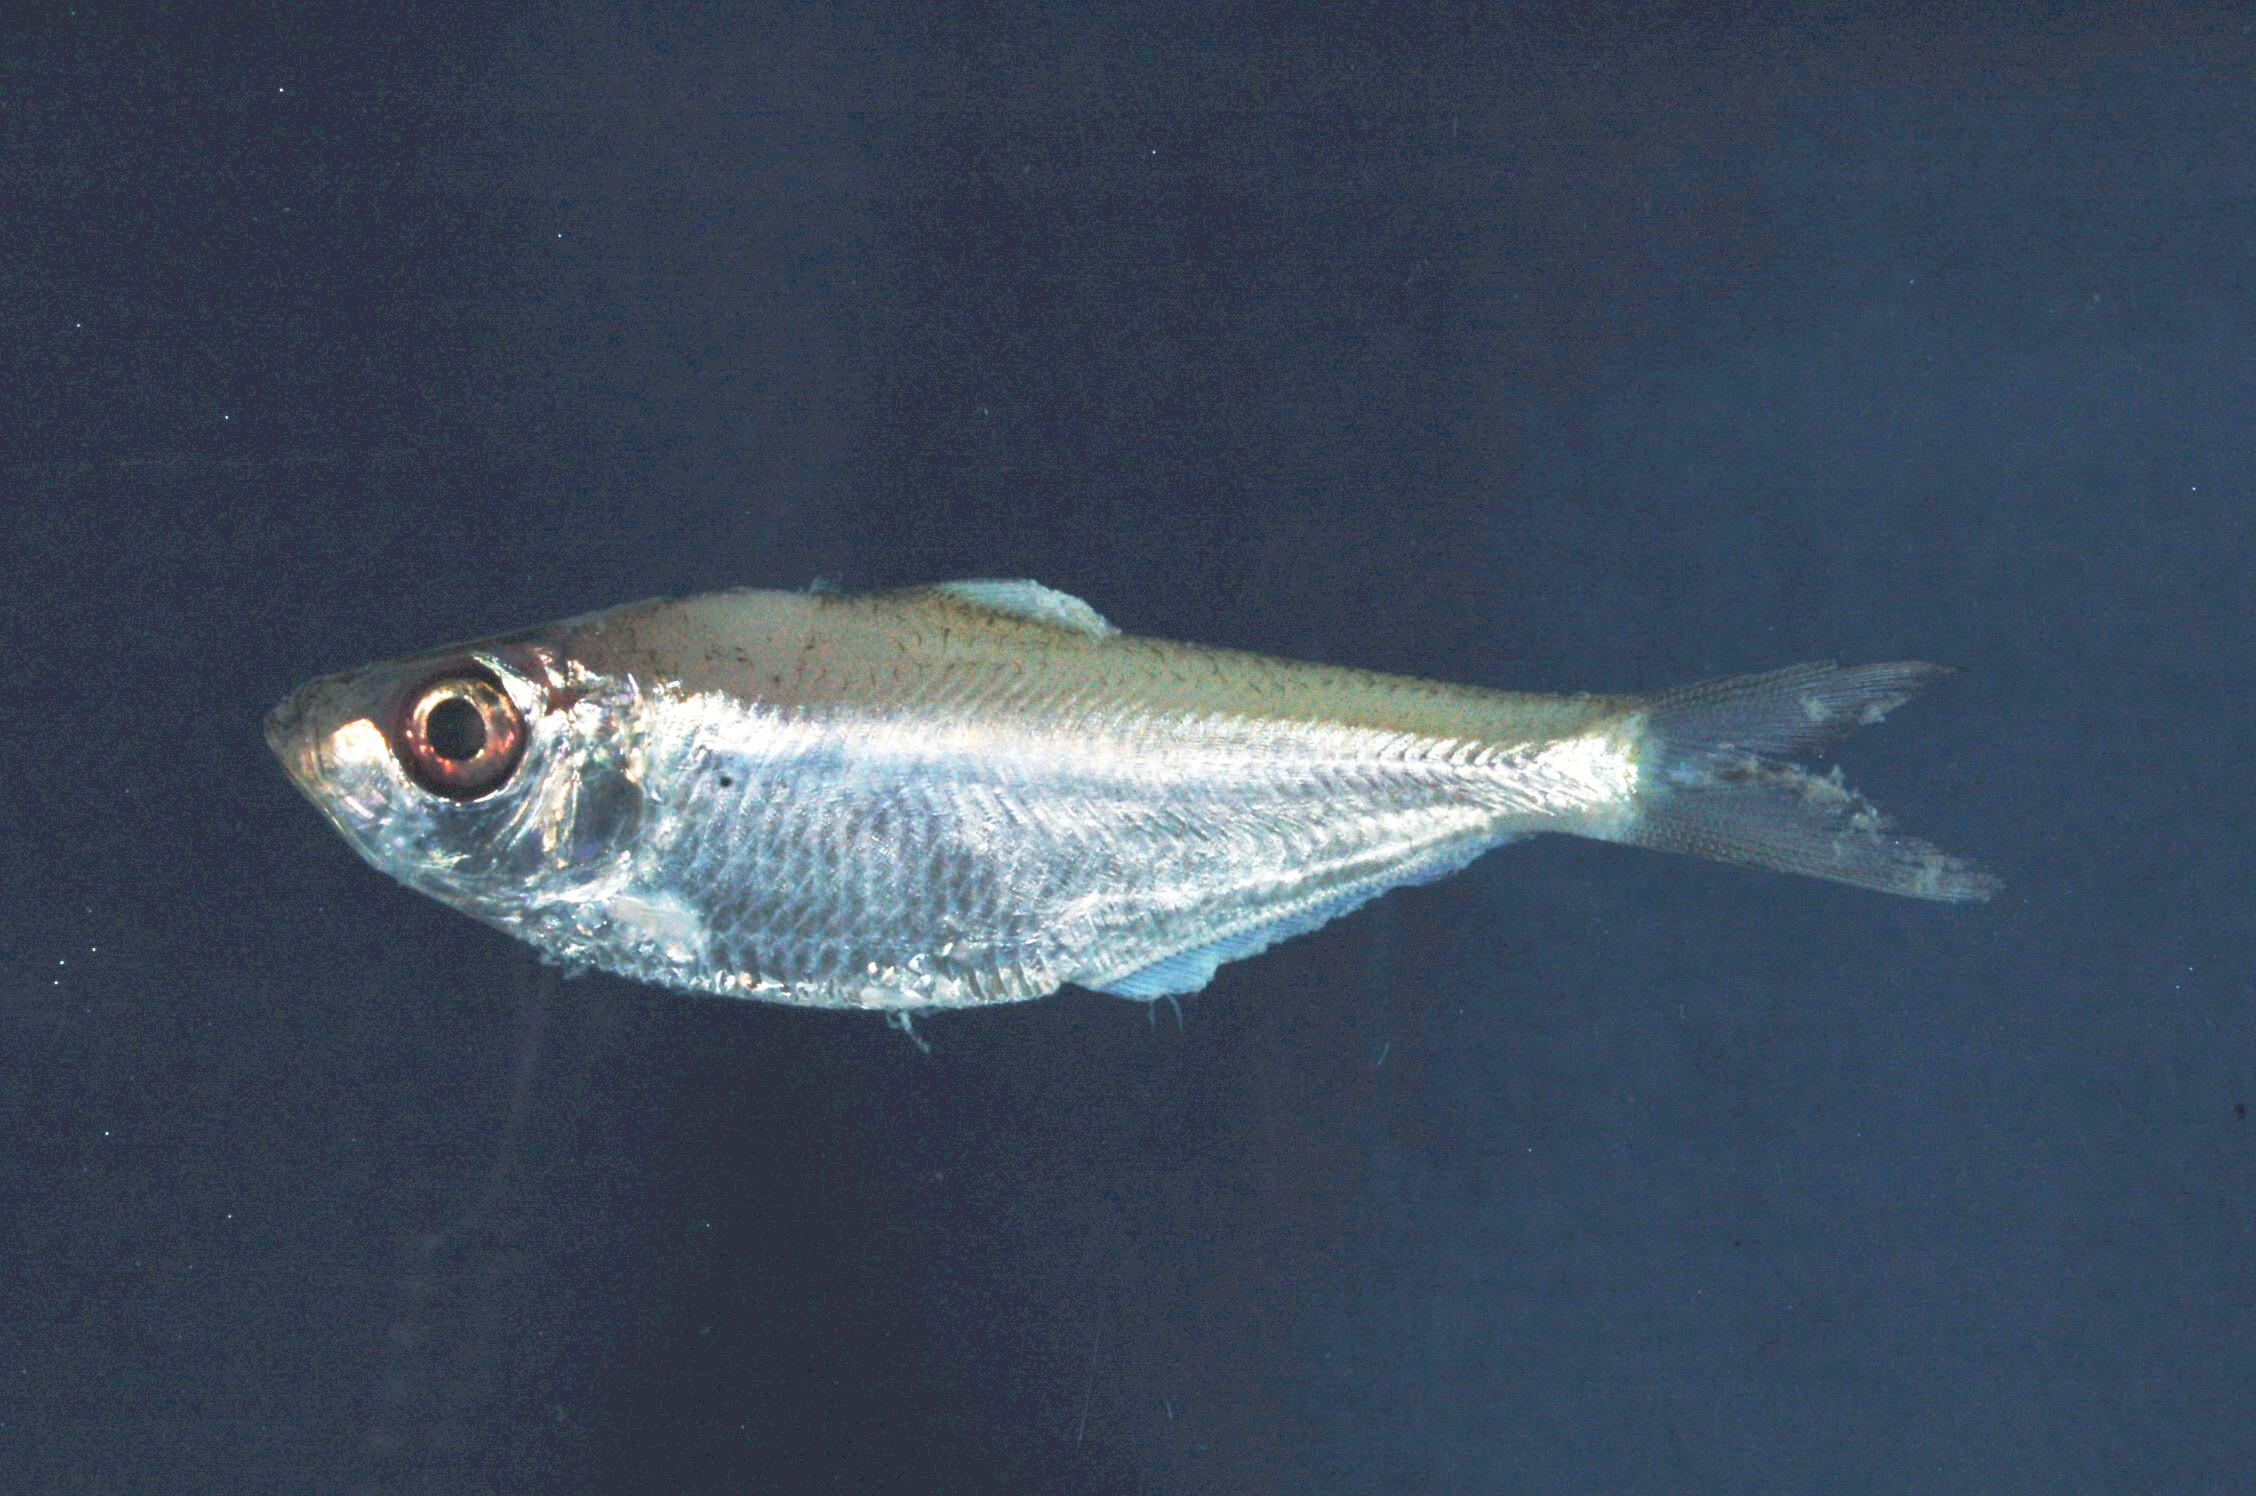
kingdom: Animalia
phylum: Chordata
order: Clupeiformes
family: Pristigasteridae
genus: Pellona
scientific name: Pellona ditchela
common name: Indian pellona
